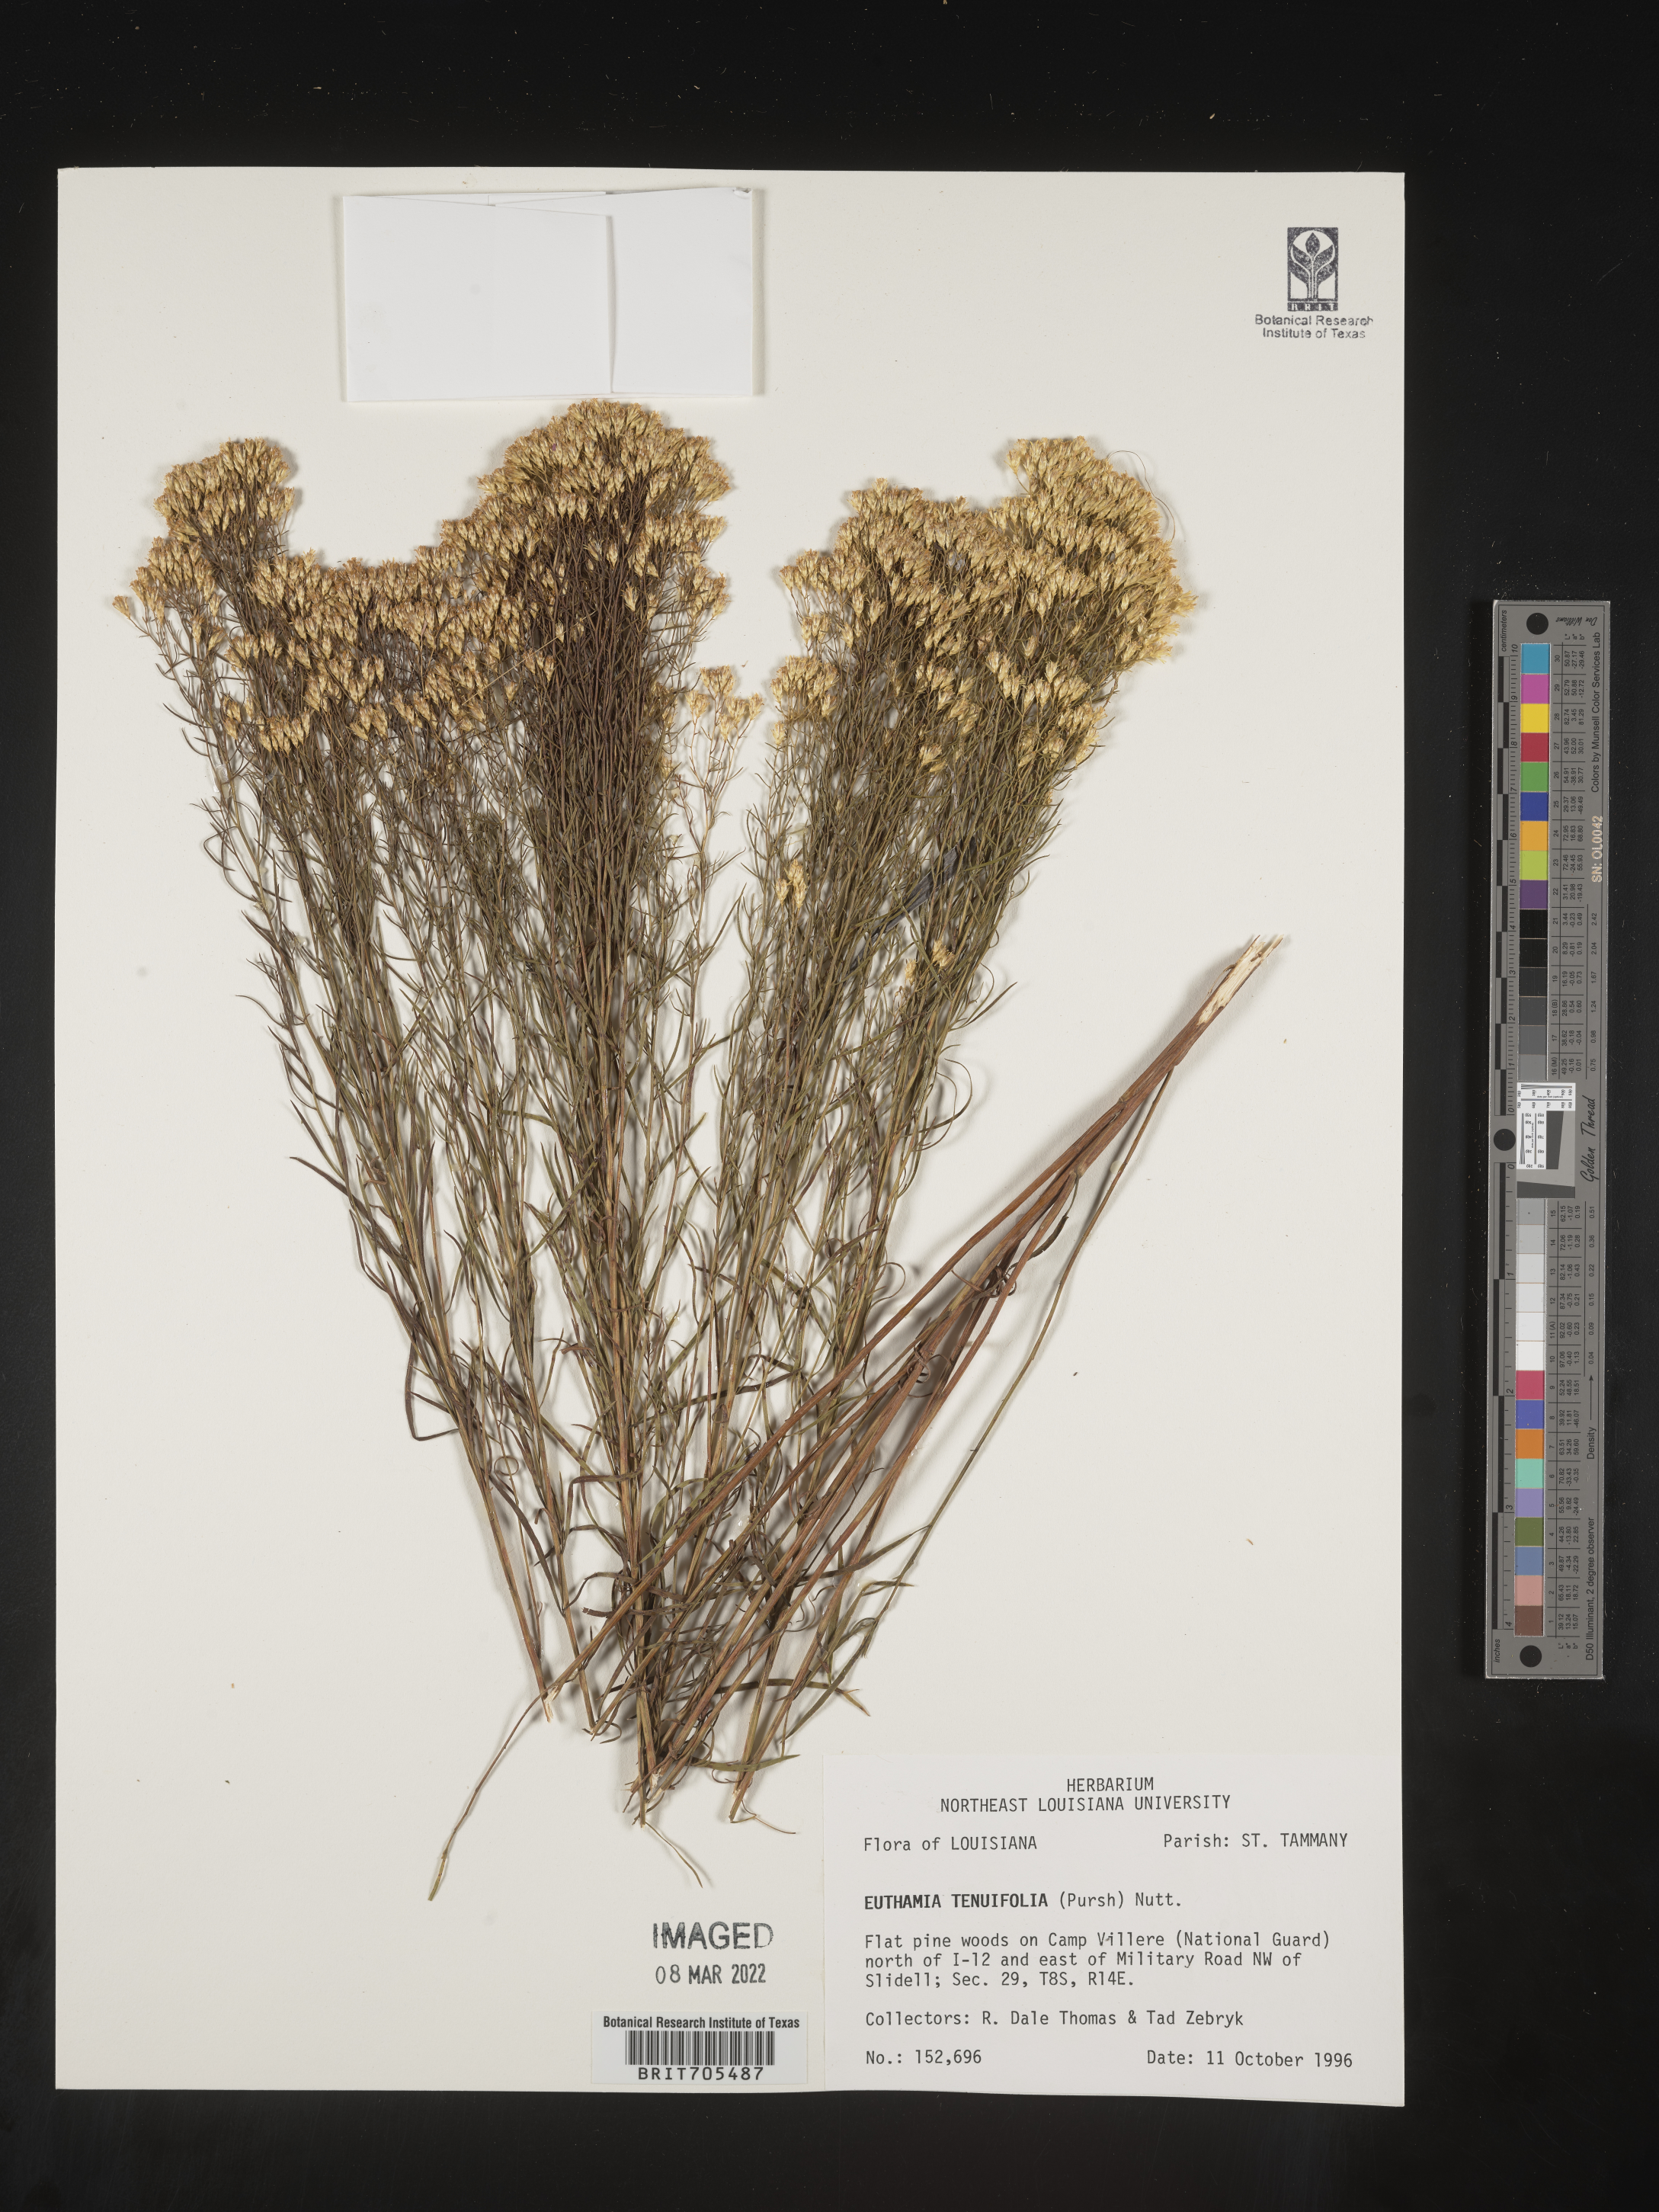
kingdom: Plantae
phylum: Tracheophyta
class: Magnoliopsida
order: Asterales
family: Asteraceae
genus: Euthamia
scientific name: Euthamia caroliniana
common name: Coastal plain goldentop
